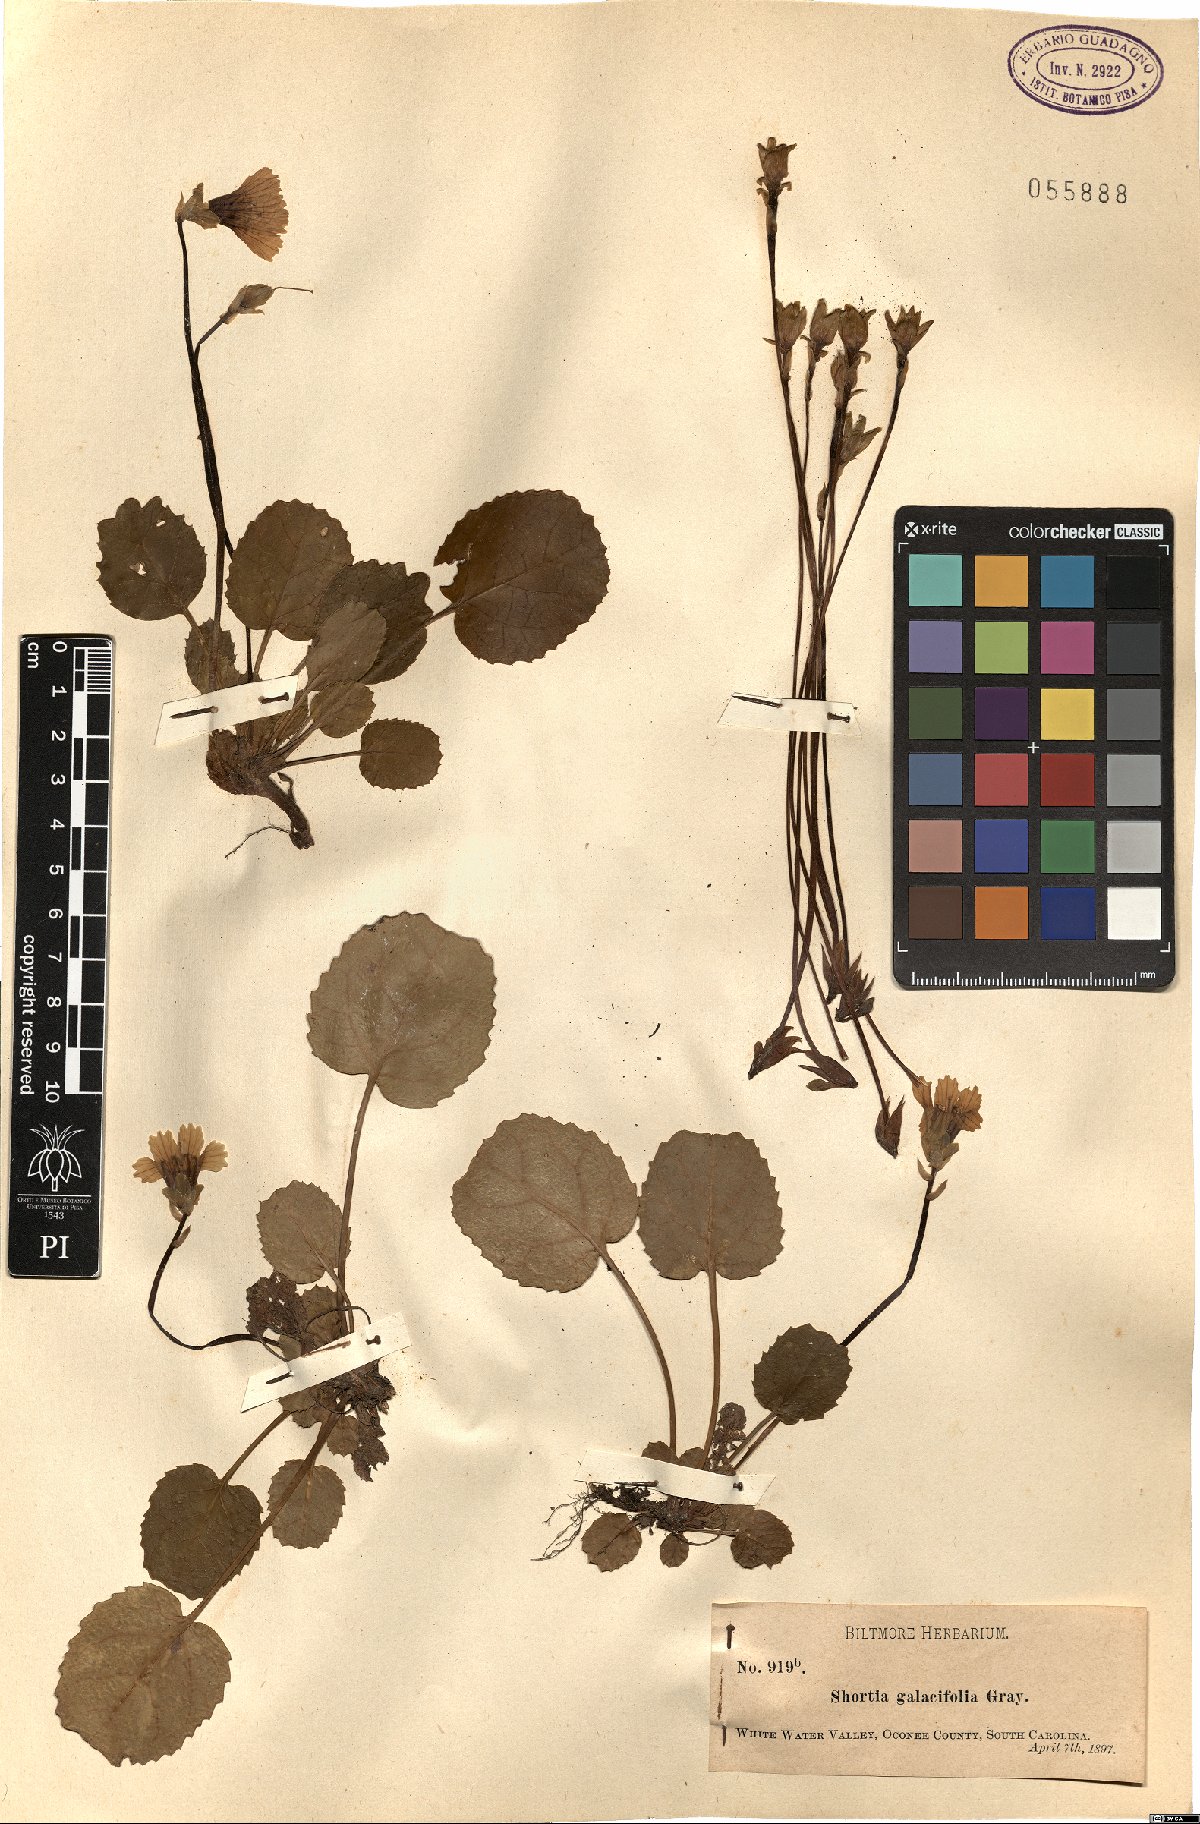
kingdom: Plantae
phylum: Tracheophyta
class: Magnoliopsida
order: Ericales
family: Diapensiaceae
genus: Shortia
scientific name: Shortia galacifolia
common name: Shortia
